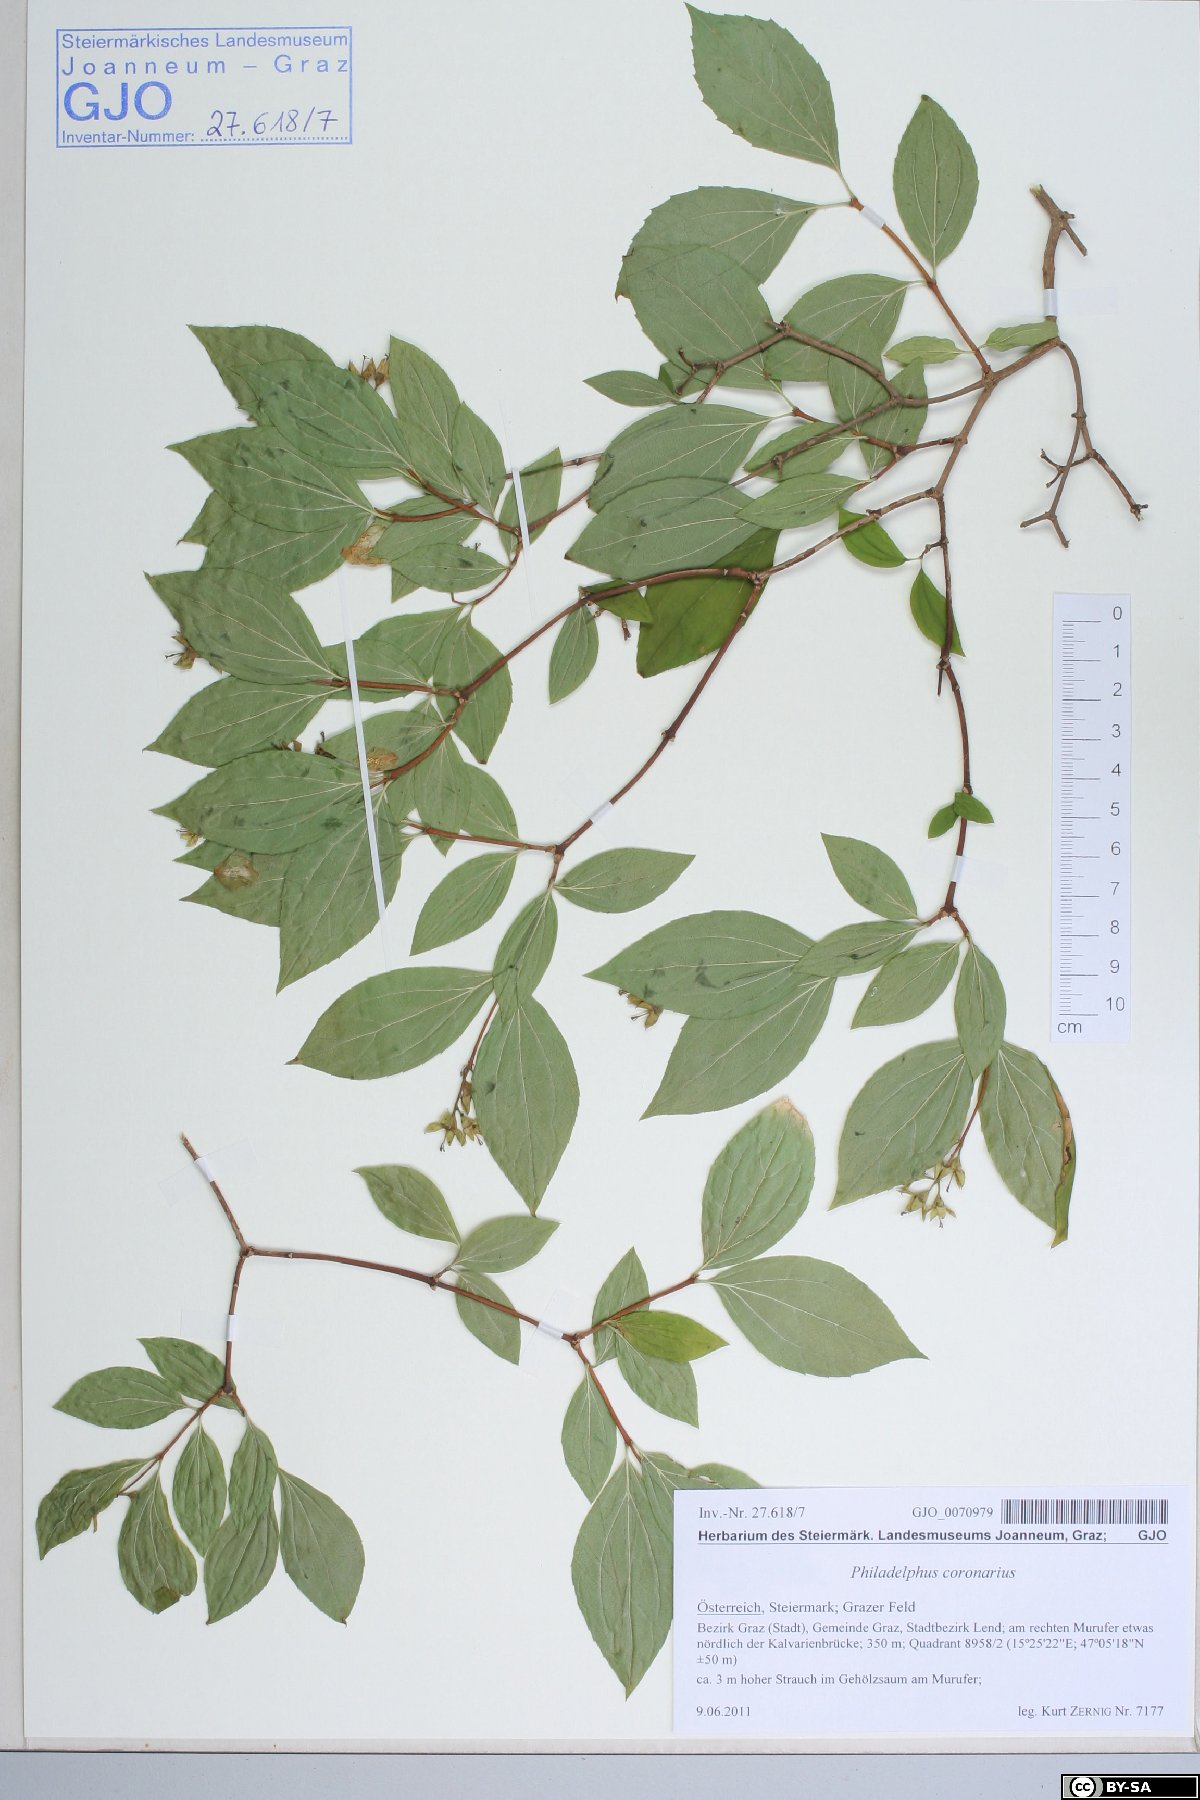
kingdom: Plantae
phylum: Tracheophyta
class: Magnoliopsida
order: Cornales
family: Hydrangeaceae
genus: Philadelphus
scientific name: Philadelphus coronarius
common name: Mock orange
